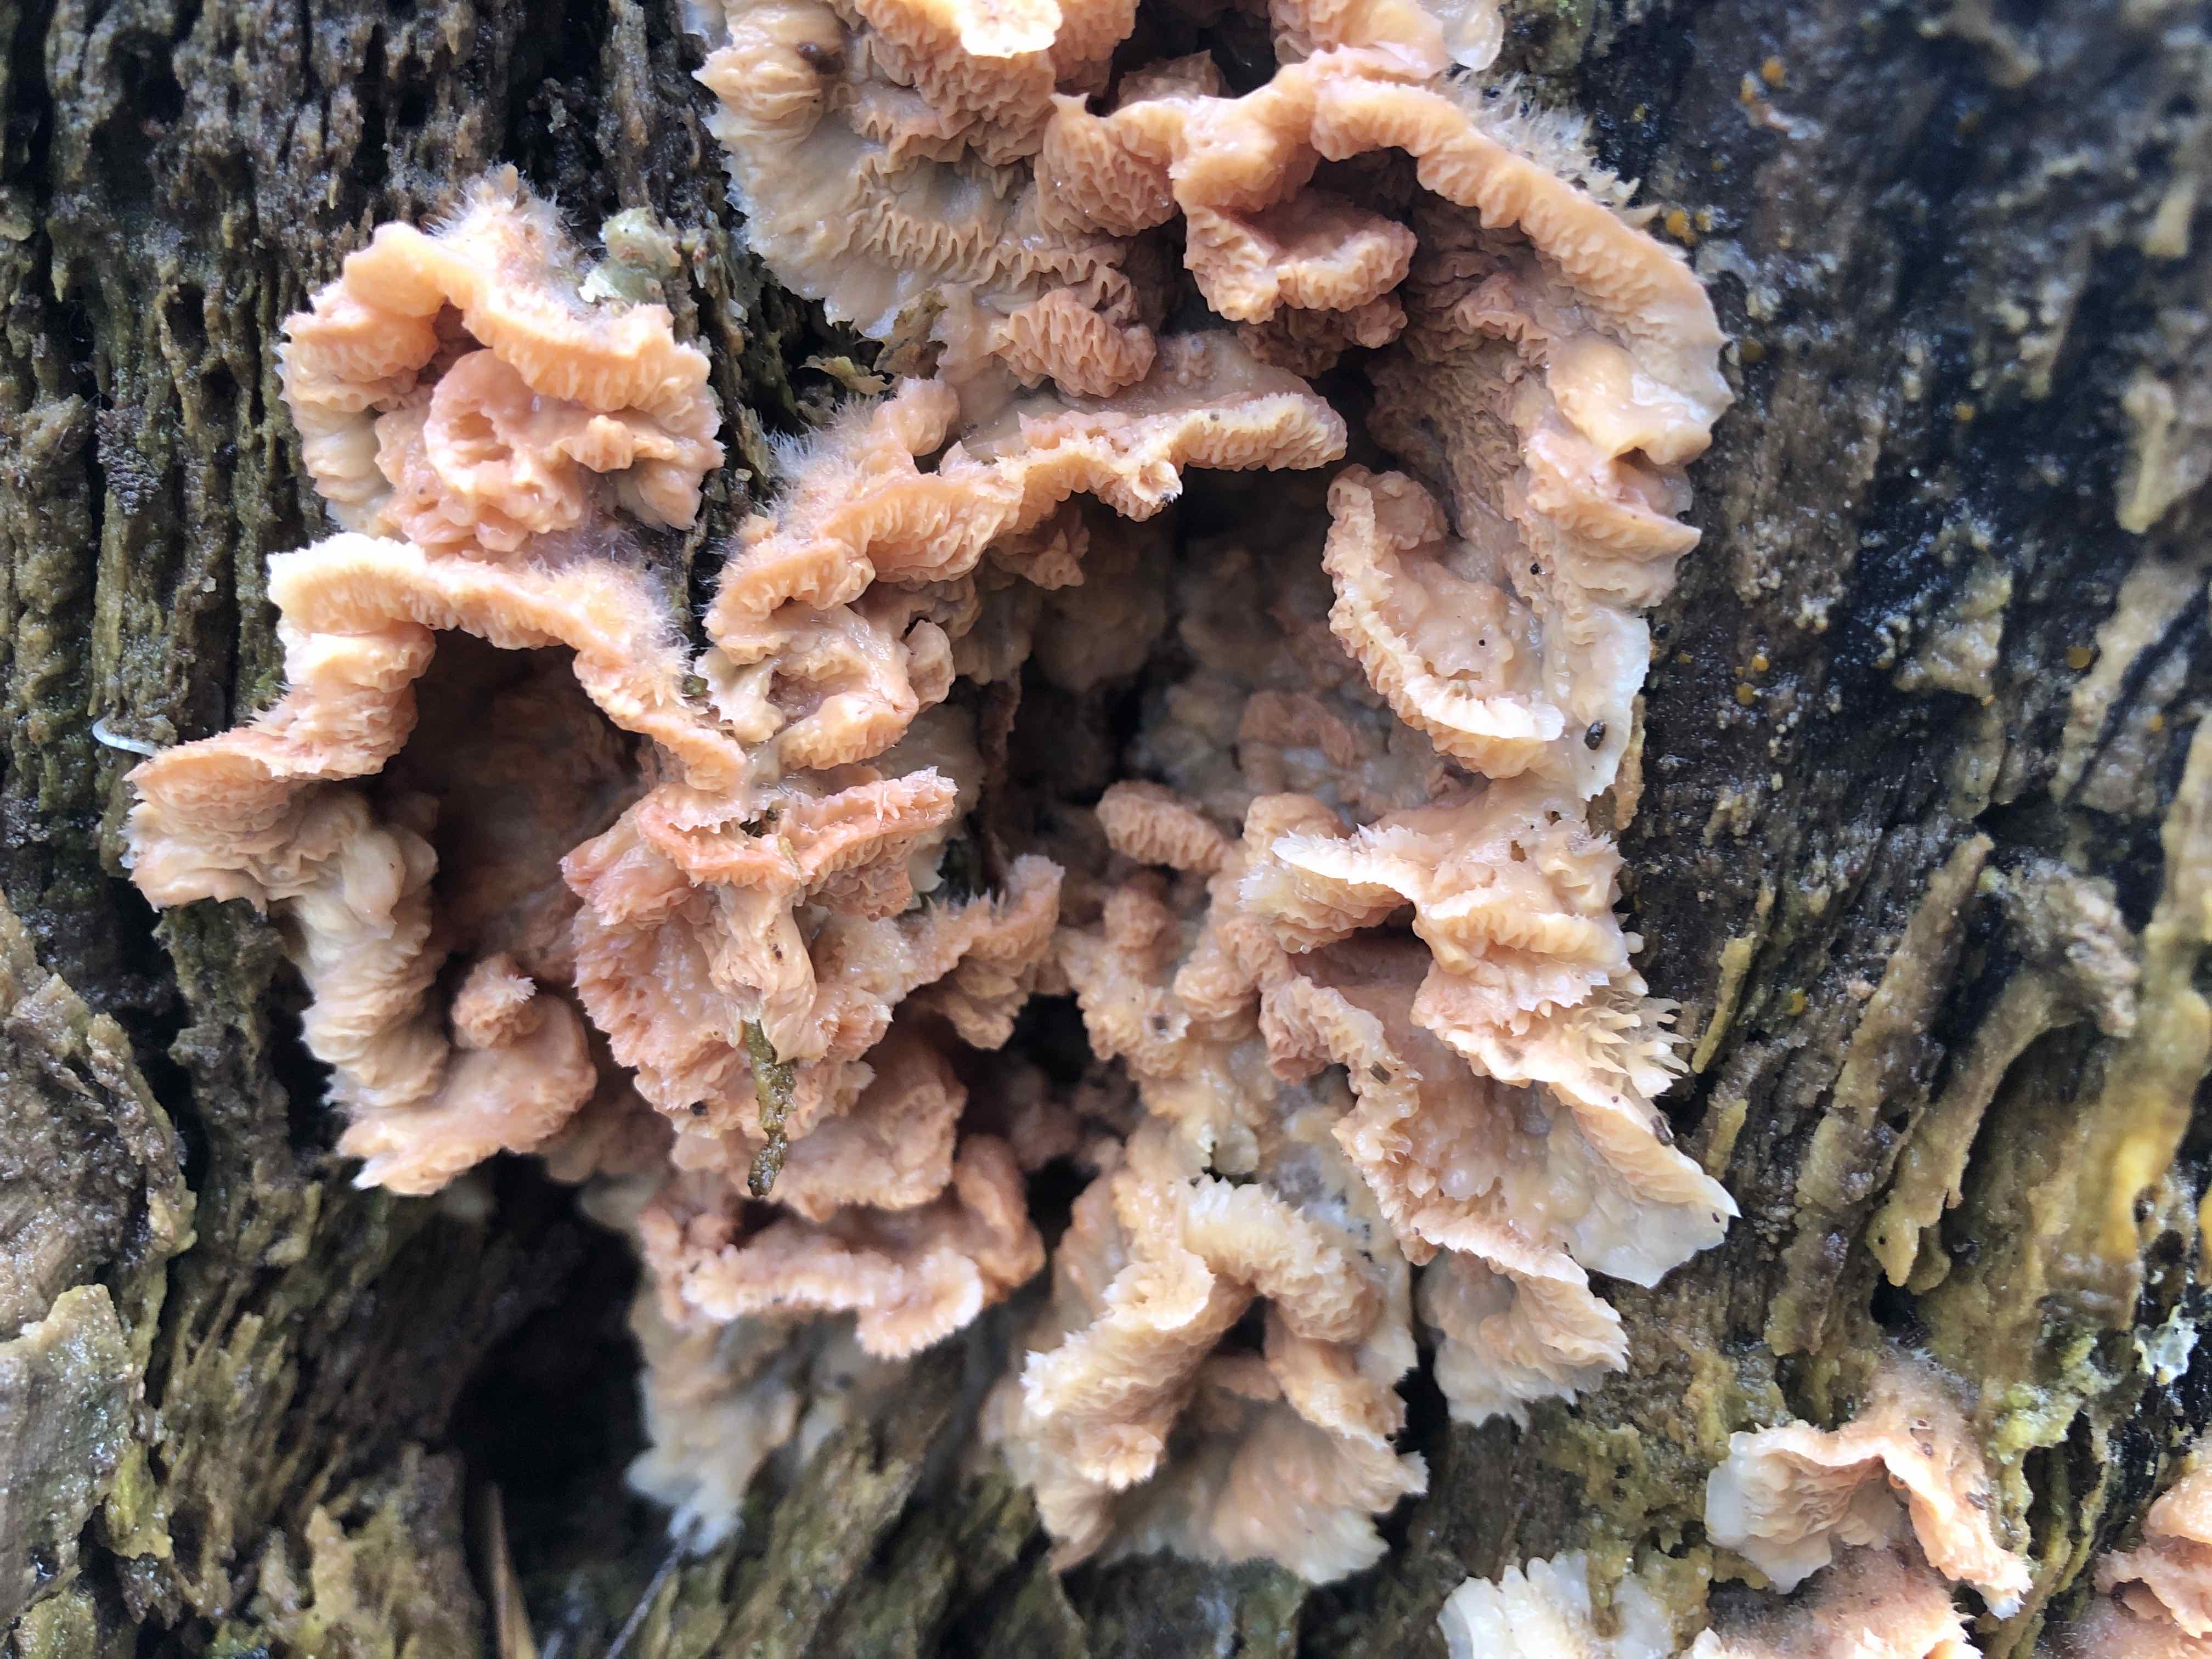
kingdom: Fungi
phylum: Basidiomycota
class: Agaricomycetes
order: Polyporales
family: Meruliaceae
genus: Phlebia
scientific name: Phlebia tremellosa
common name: bævrende åresvamp
